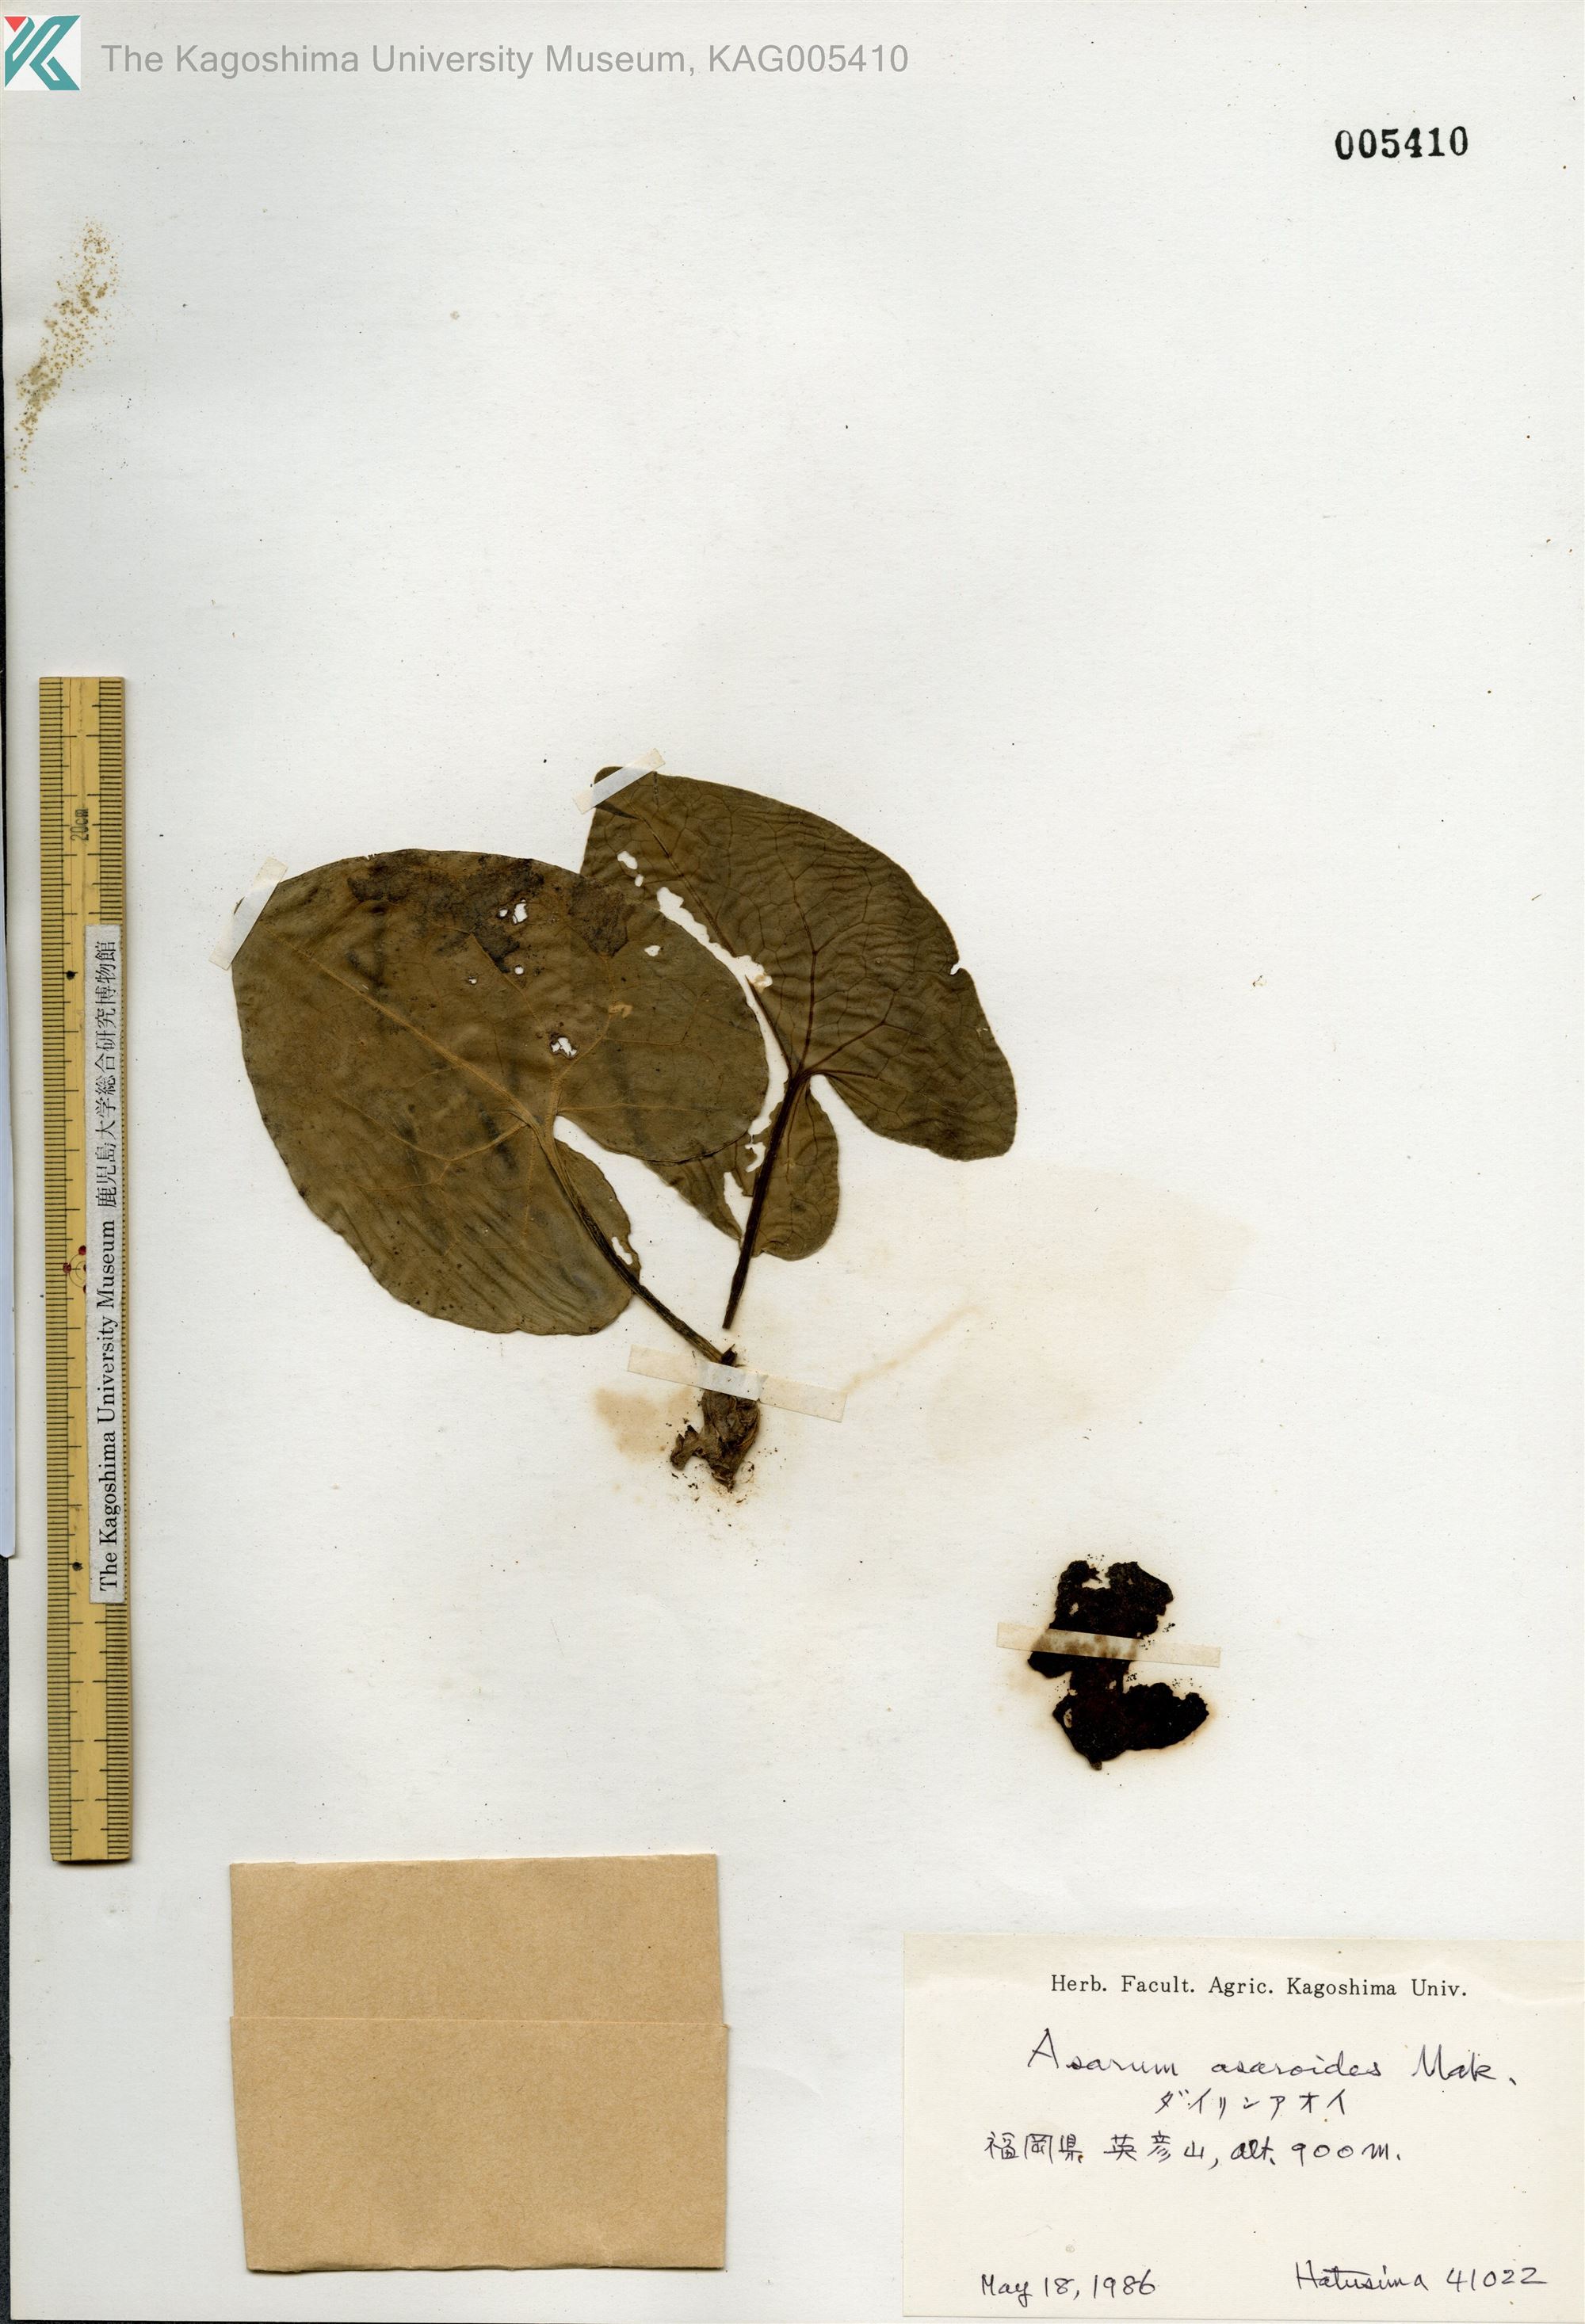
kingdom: Plantae
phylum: Tracheophyta
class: Magnoliopsida
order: Piperales
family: Aristolochiaceae
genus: Asarum
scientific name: Asarum asaroides
